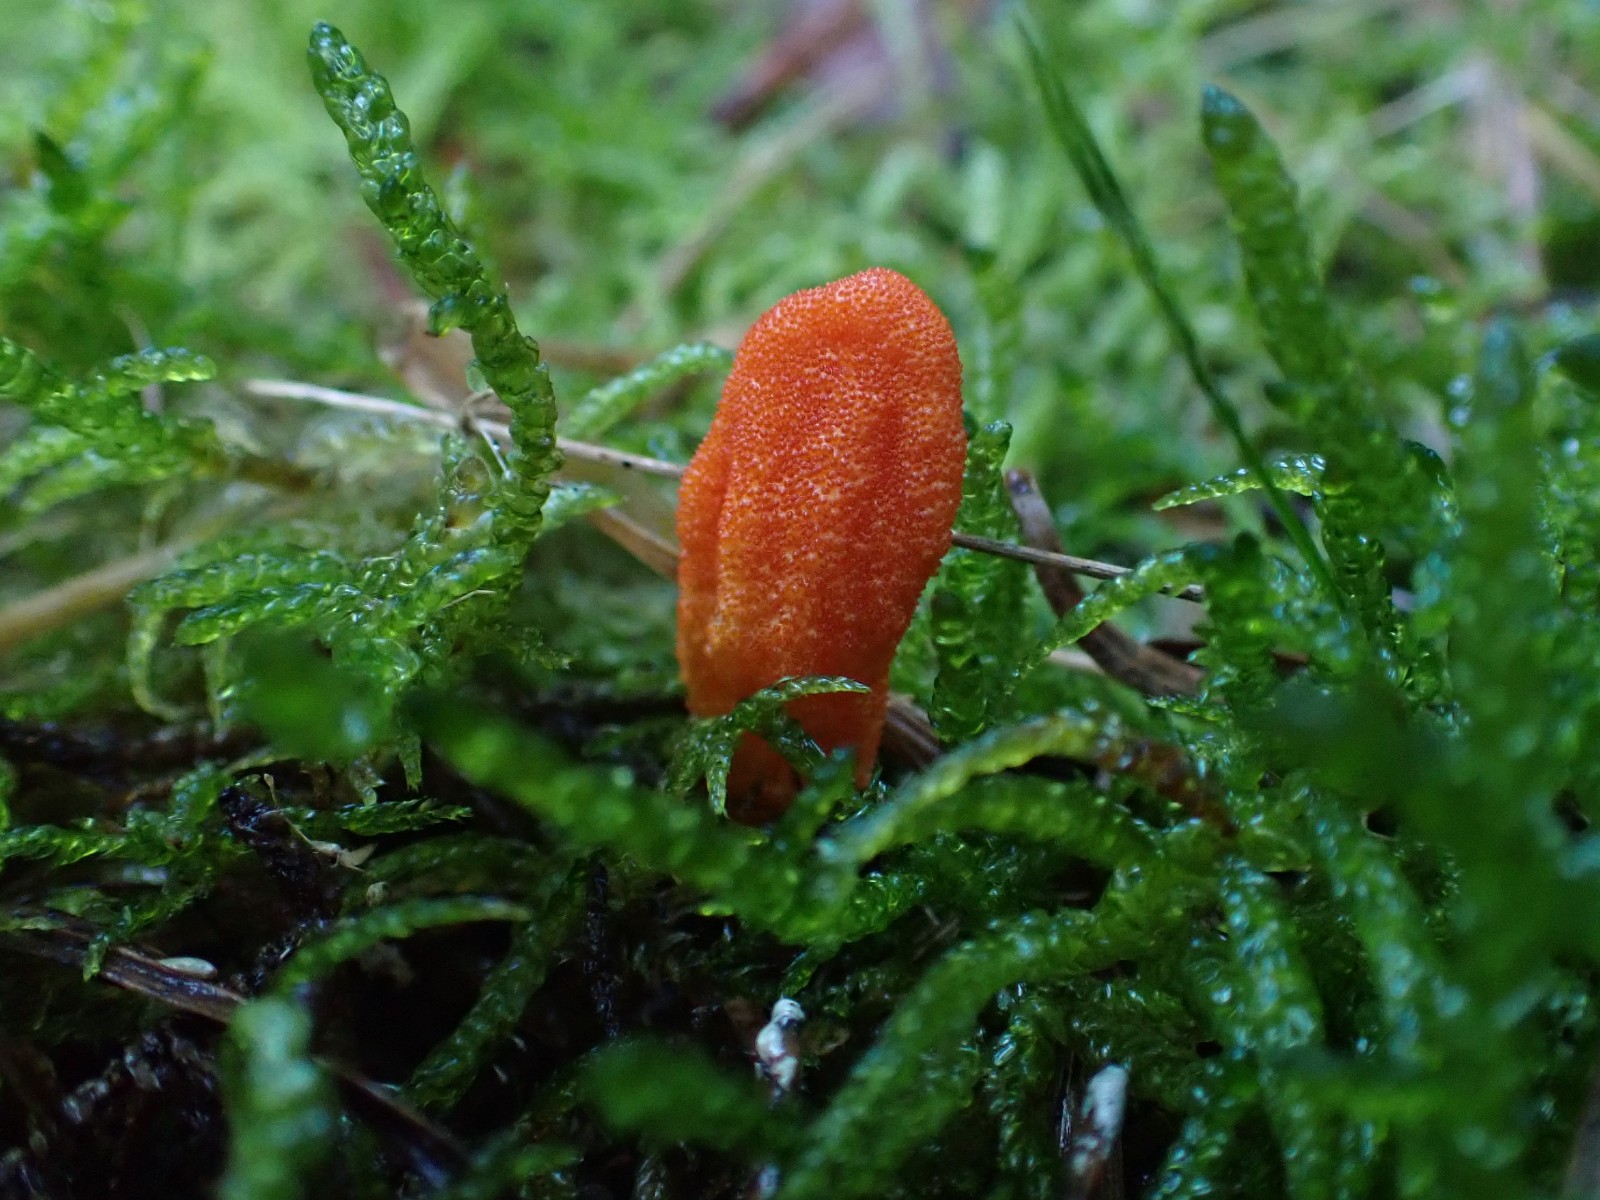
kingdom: Fungi
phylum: Ascomycota
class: Sordariomycetes
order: Hypocreales
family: Cordycipitaceae
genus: Cordyceps
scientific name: Cordyceps militaris
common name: puppe-snyltekølle
